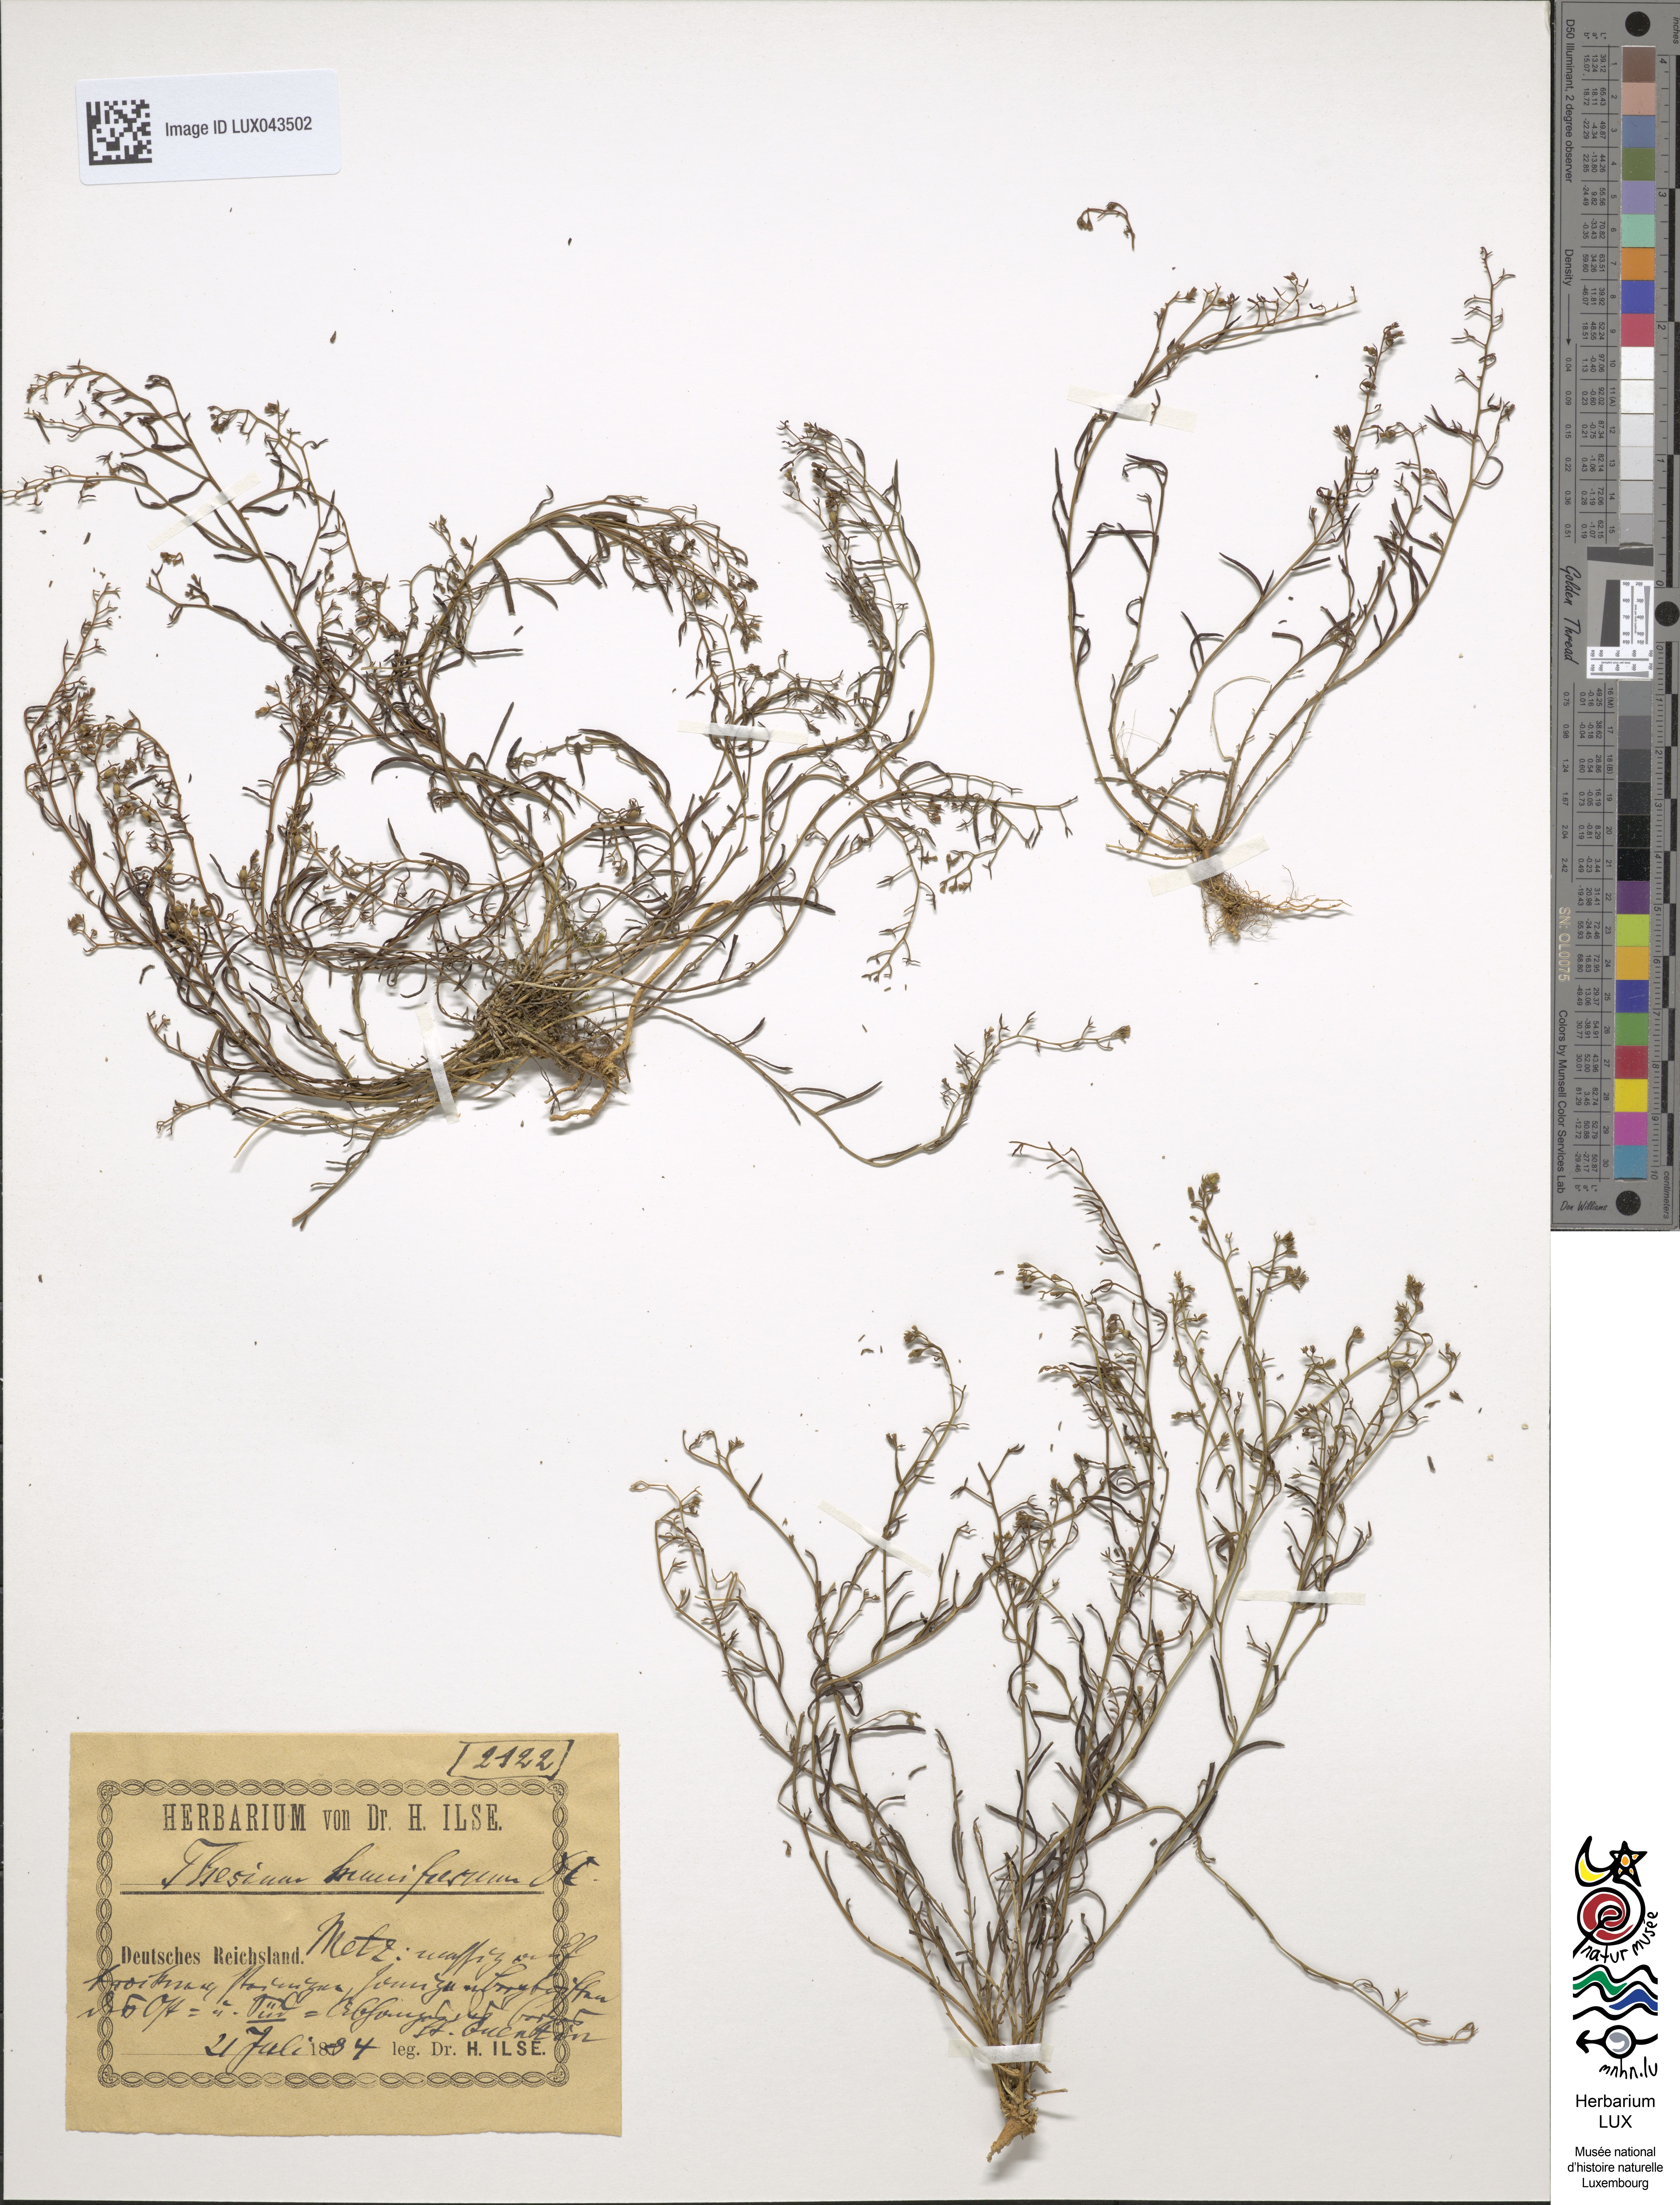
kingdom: Plantae
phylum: Tracheophyta
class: Magnoliopsida
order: Santalales
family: Thesiaceae
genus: Thesium
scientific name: Thesium humifusum
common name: Bastard-toadflax
